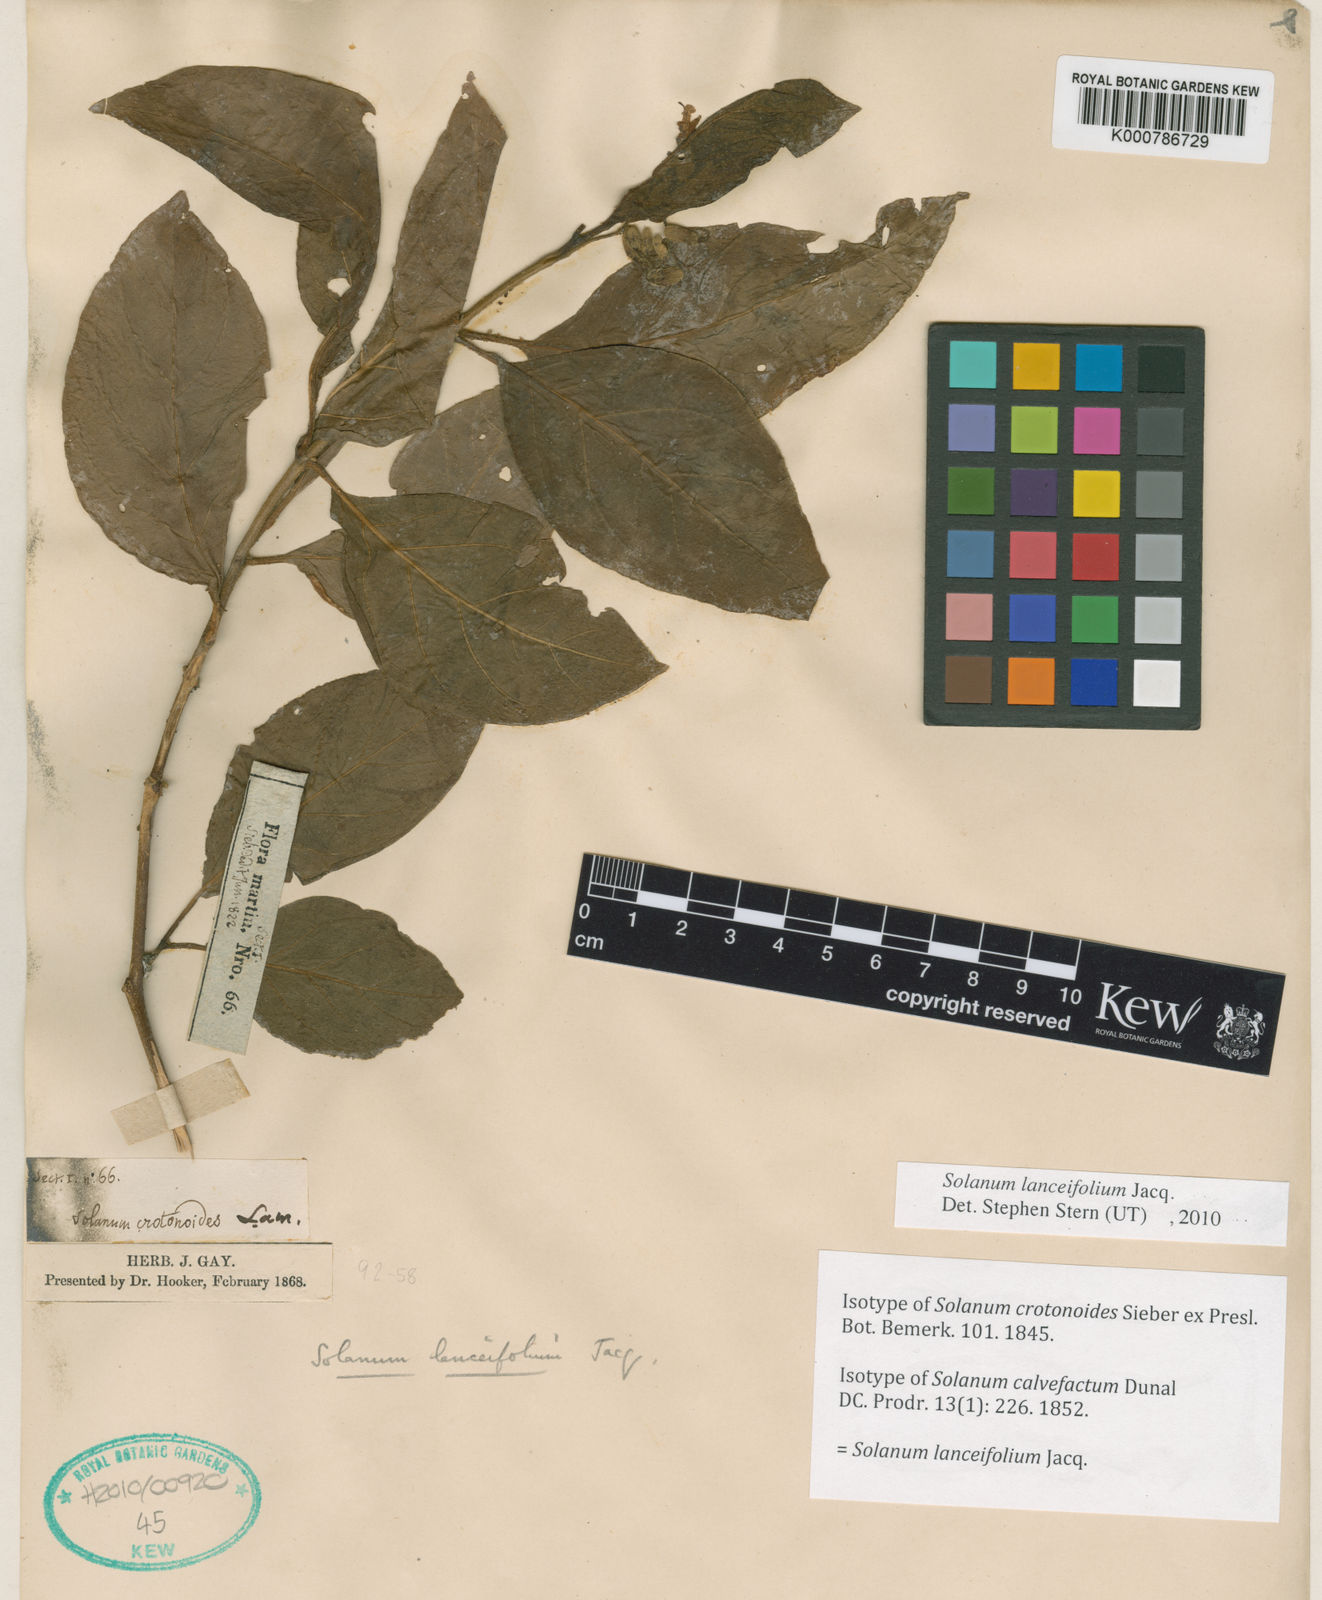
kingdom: Plantae
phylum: Tracheophyta
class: Magnoliopsida
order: Solanales
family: Solanaceae
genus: Solanum
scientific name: Solanum lanceifolium
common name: Lanceleaf nightshade
